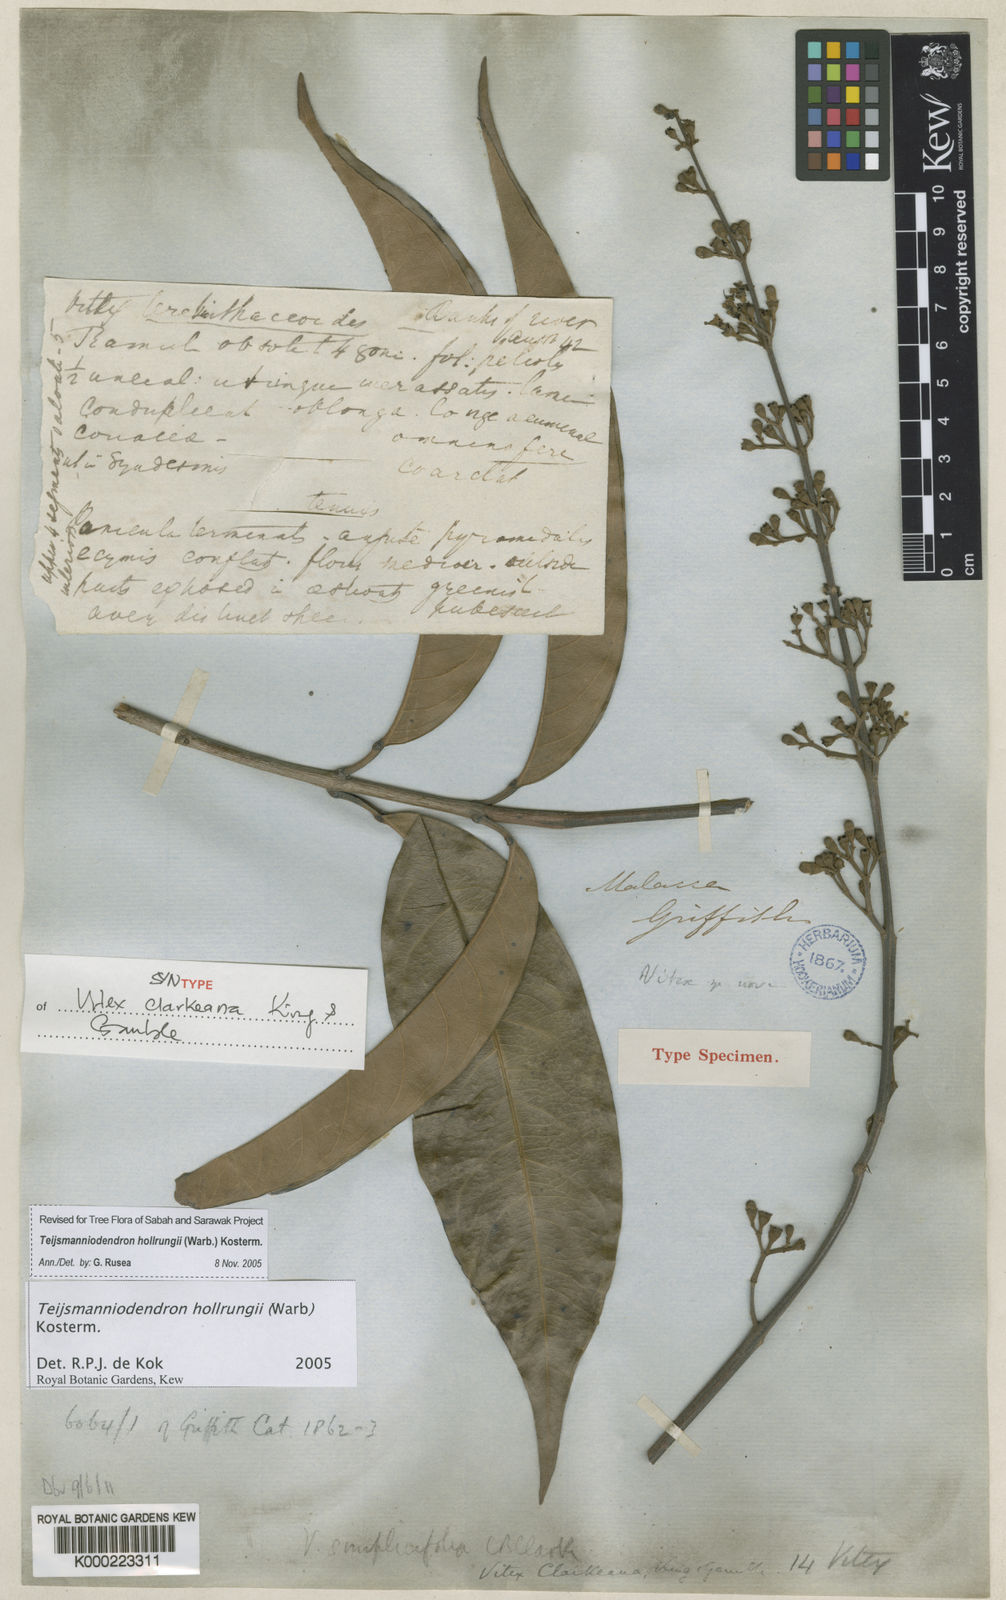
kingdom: Plantae
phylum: Tracheophyta
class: Magnoliopsida
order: Lamiales
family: Lamiaceae
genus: Teijsmanniodendron
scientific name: Teijsmanniodendron hollrungii
